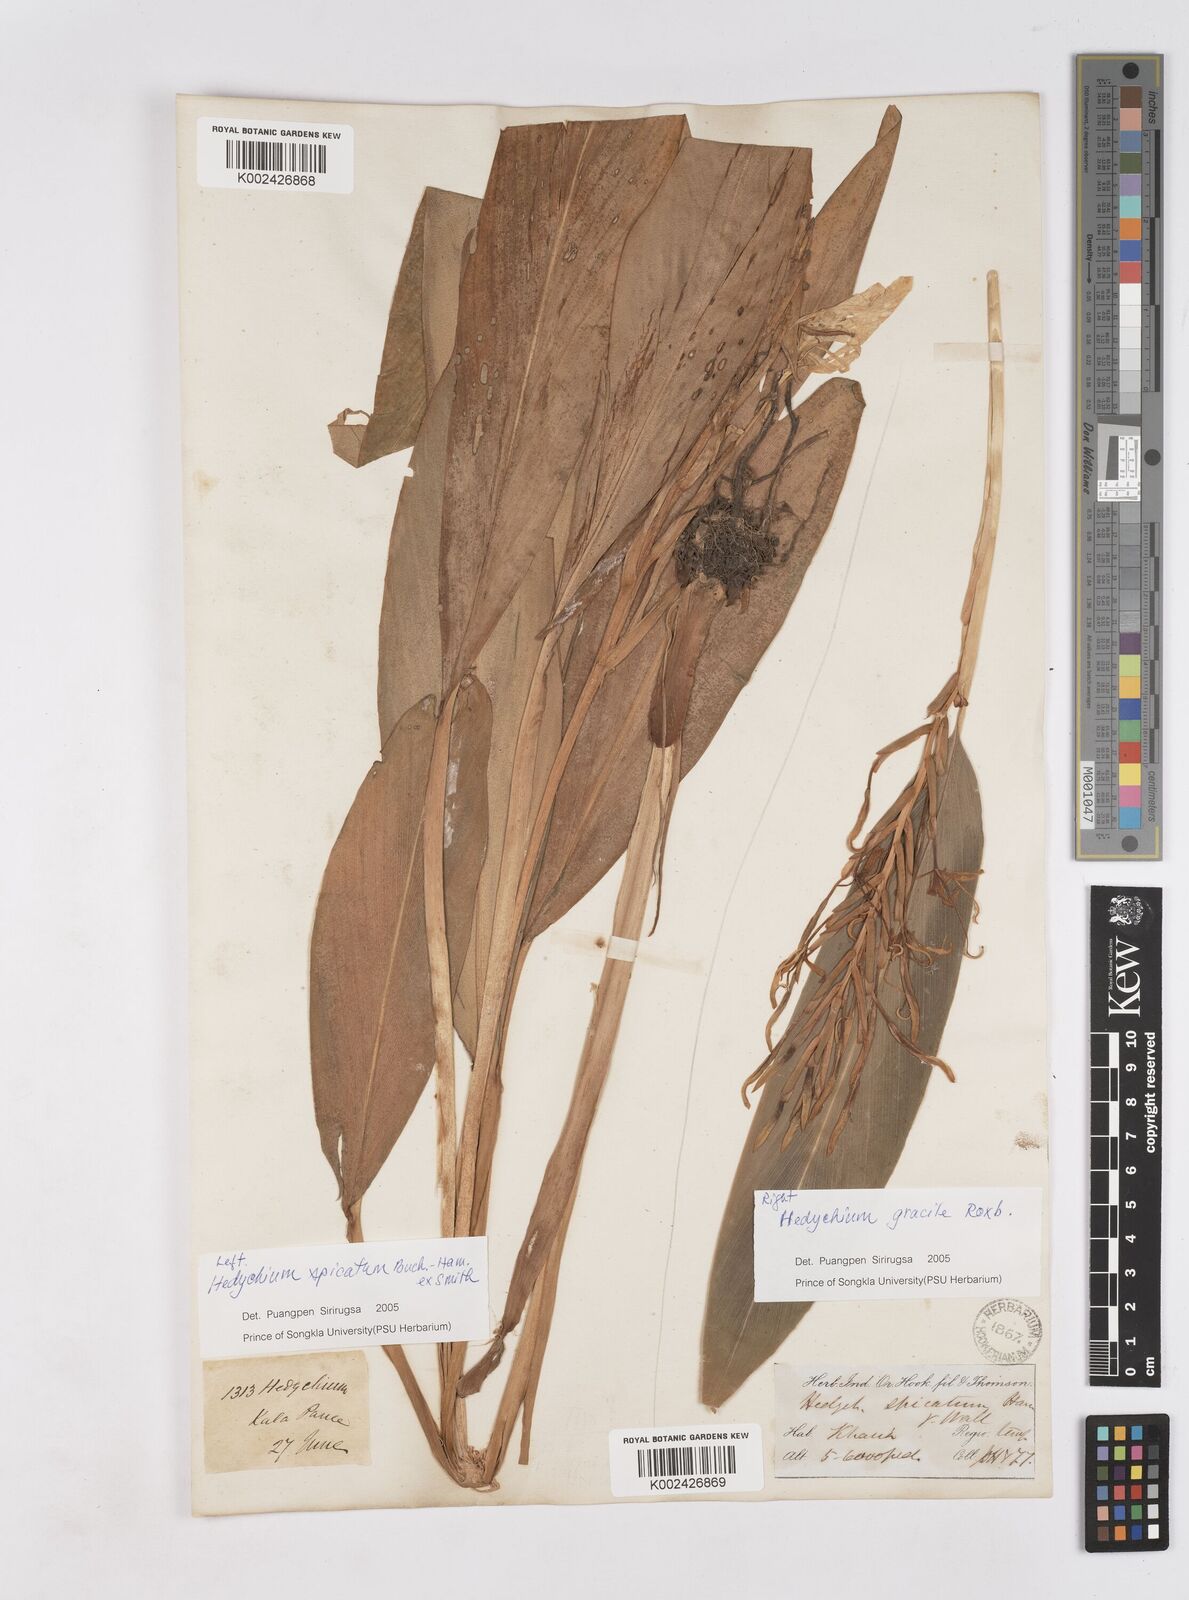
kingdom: Plantae
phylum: Tracheophyta
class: Liliopsida
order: Zingiberales
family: Zingiberaceae
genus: Hedychium
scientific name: Hedychium
